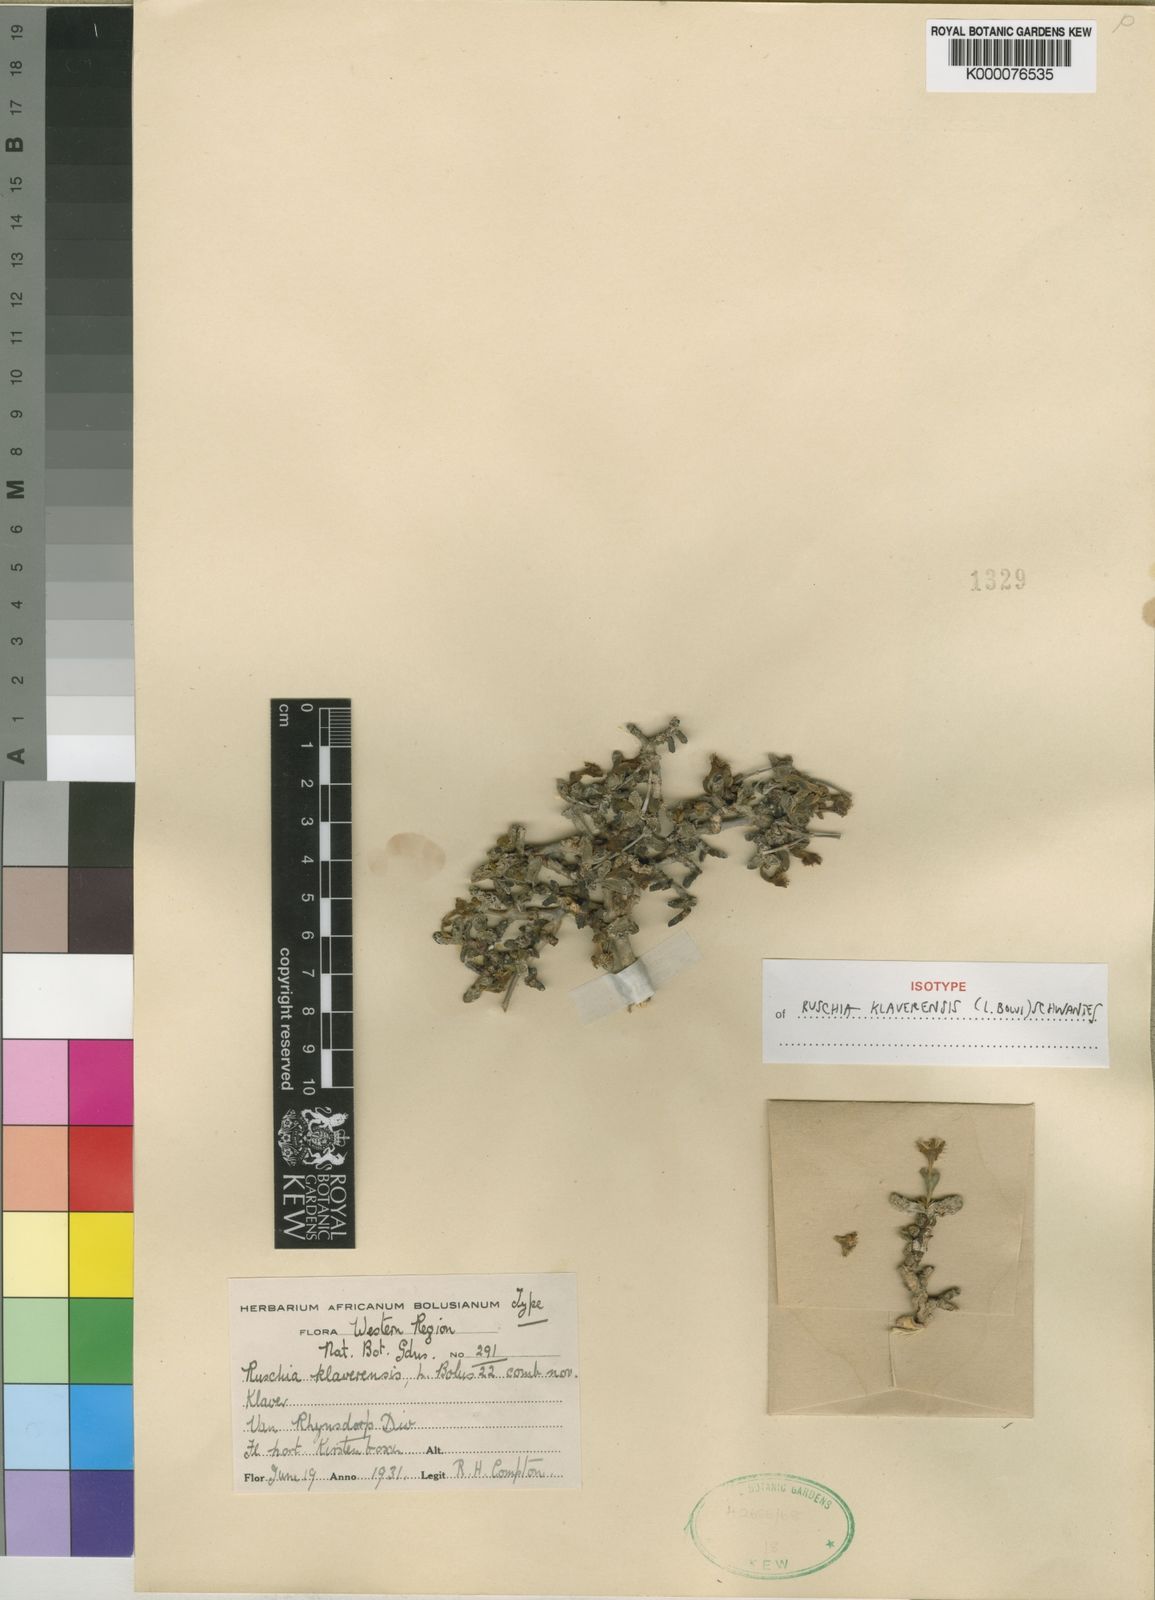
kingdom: Plantae
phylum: Tracheophyta
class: Magnoliopsida
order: Caryophyllales
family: Aizoaceae
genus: Antimima
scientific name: Antimima klaverensis
